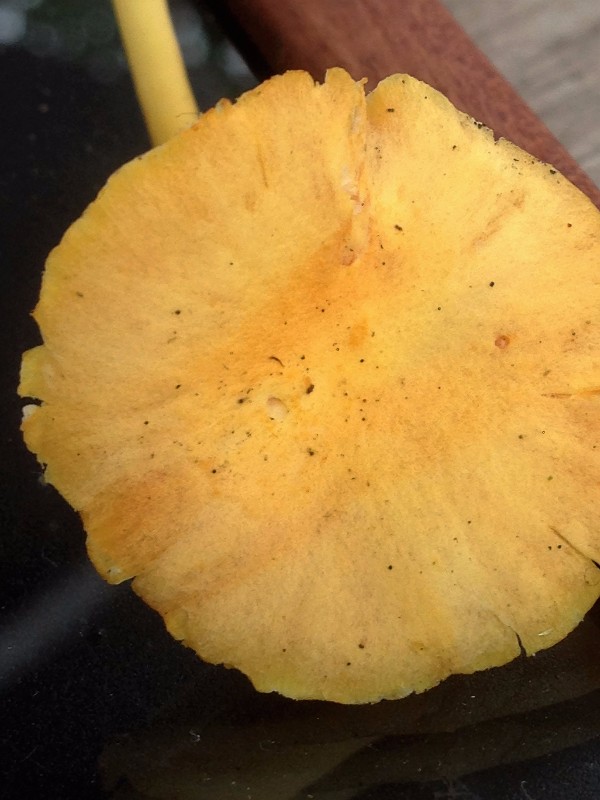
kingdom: Fungi
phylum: Basidiomycota
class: Agaricomycetes
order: Agaricales
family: Hygrophoraceae
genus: Hygrocybe
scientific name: Hygrocybe
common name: vokshat
